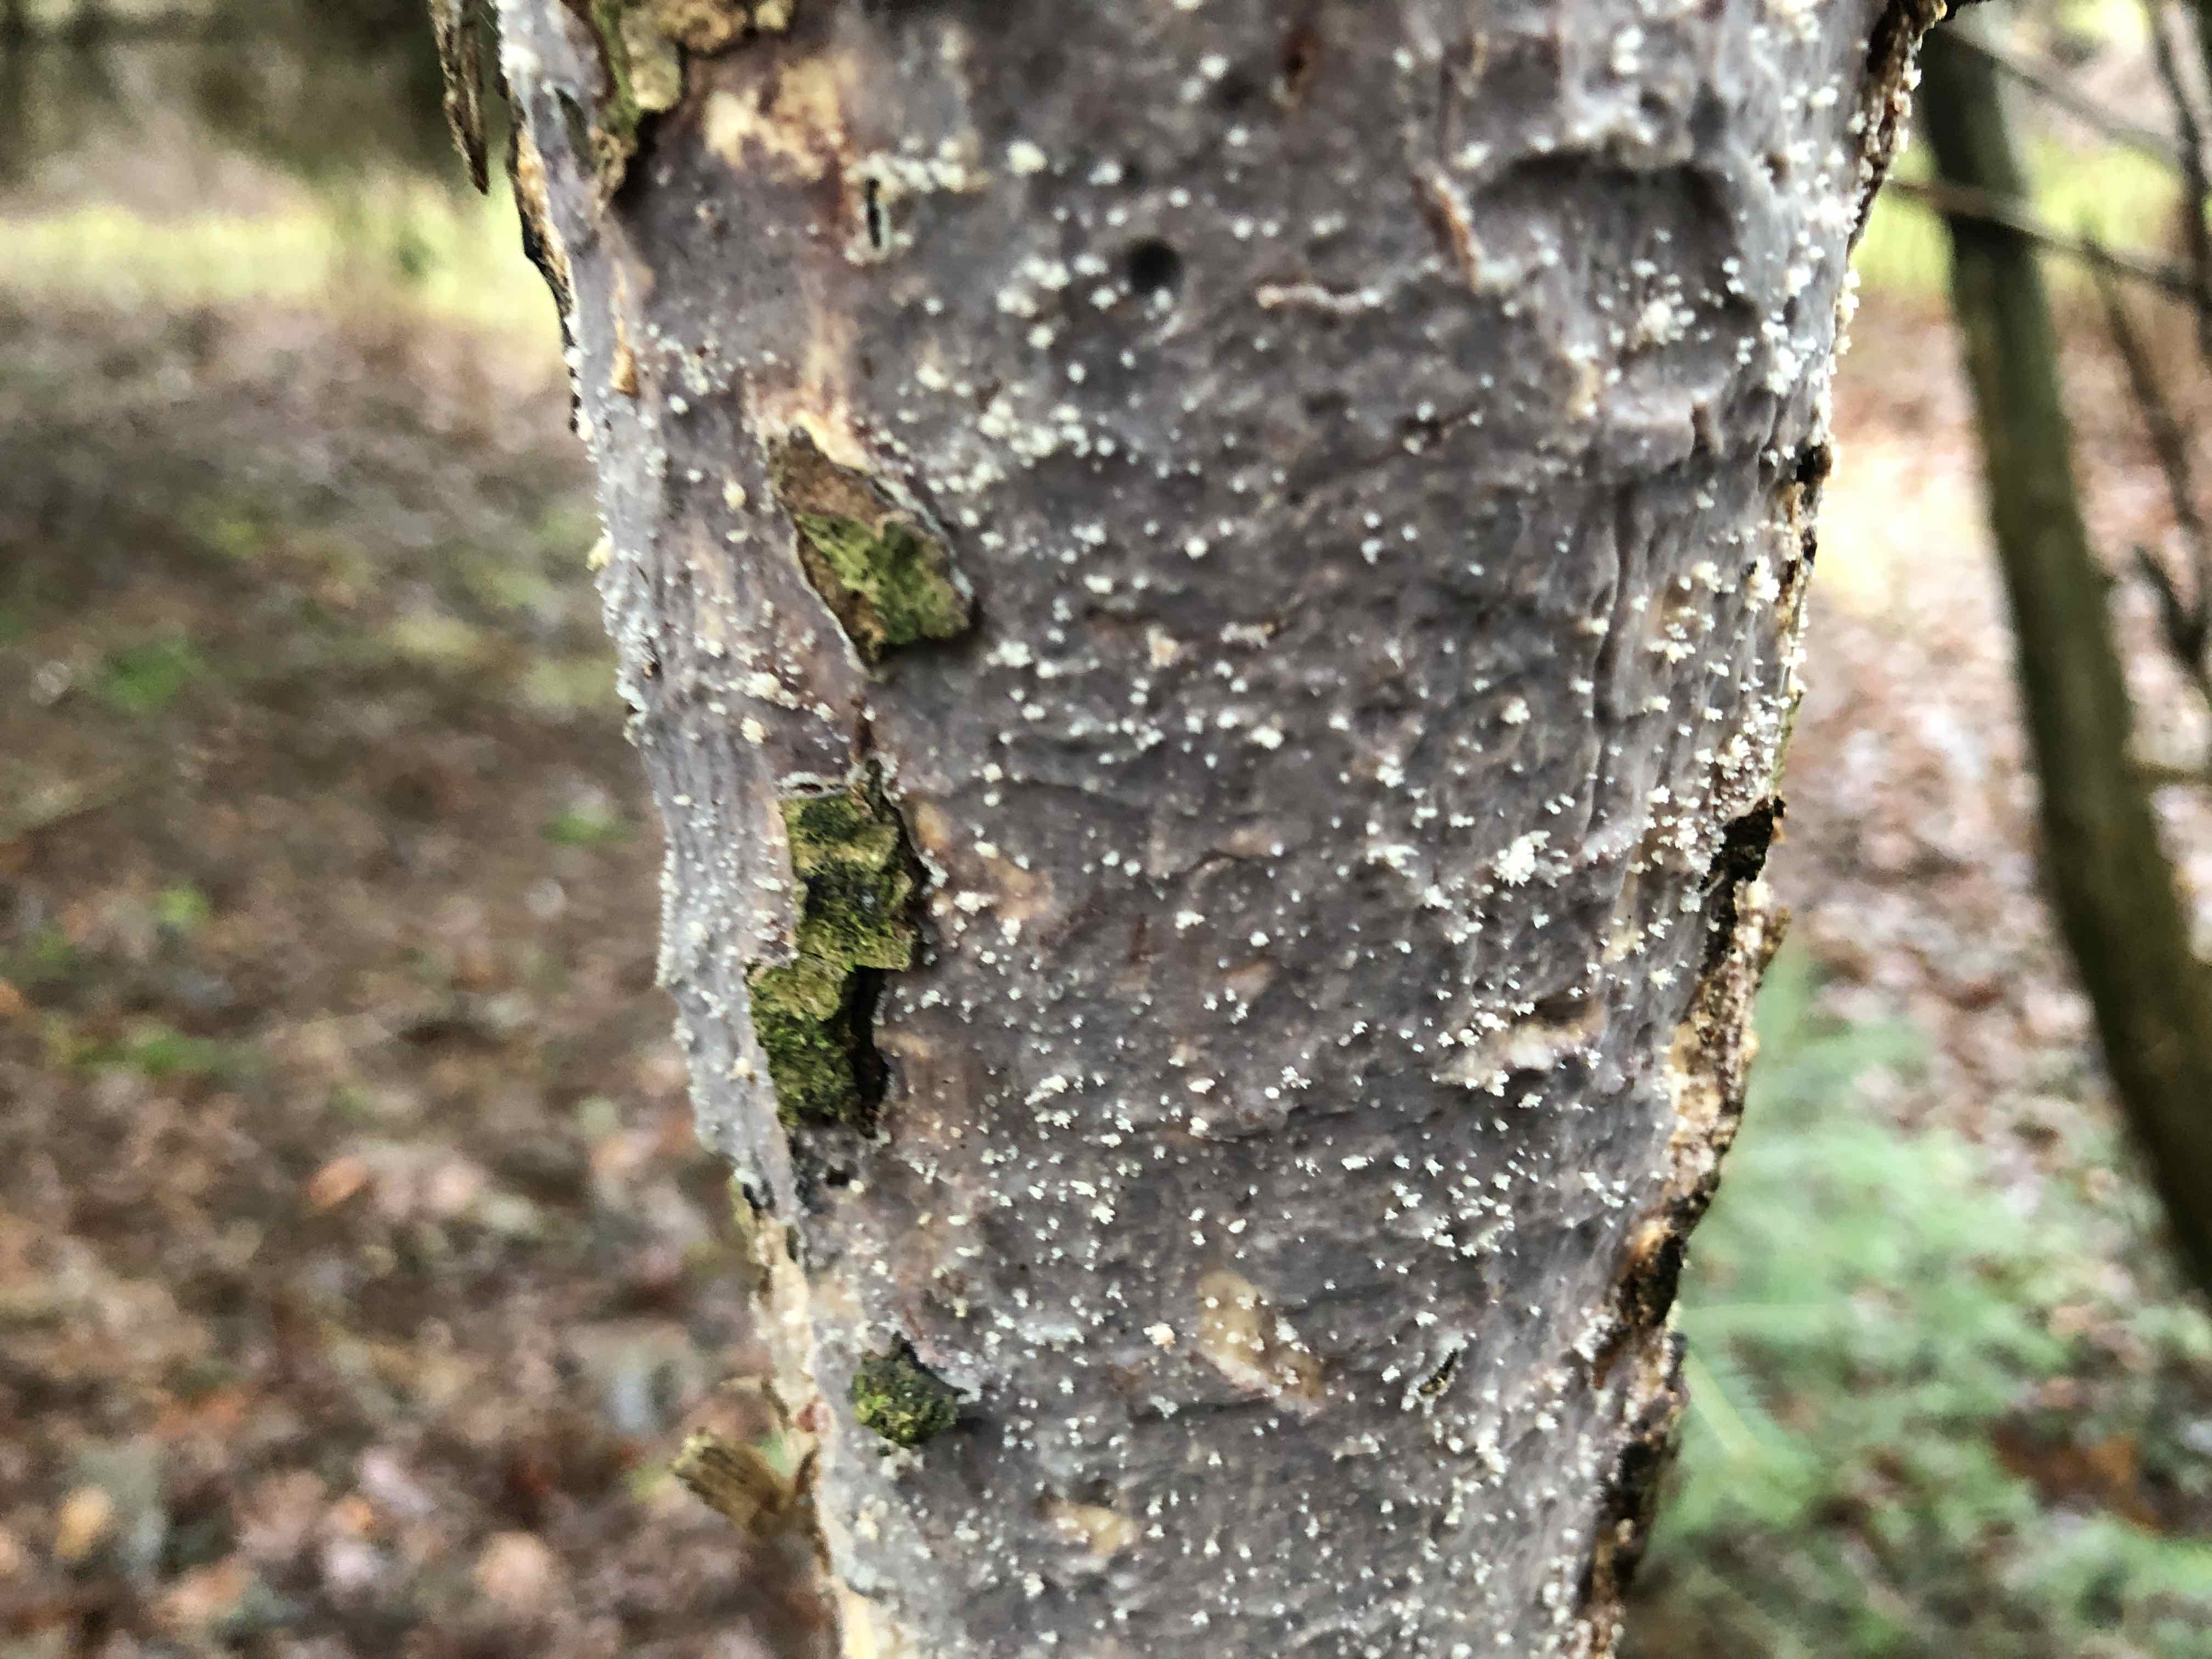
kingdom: Fungi
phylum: Basidiomycota
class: Agaricomycetes
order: Corticiales
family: Vuilleminiaceae
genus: Vuilleminia
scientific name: Vuilleminia comedens
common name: almindelig barksprænger
